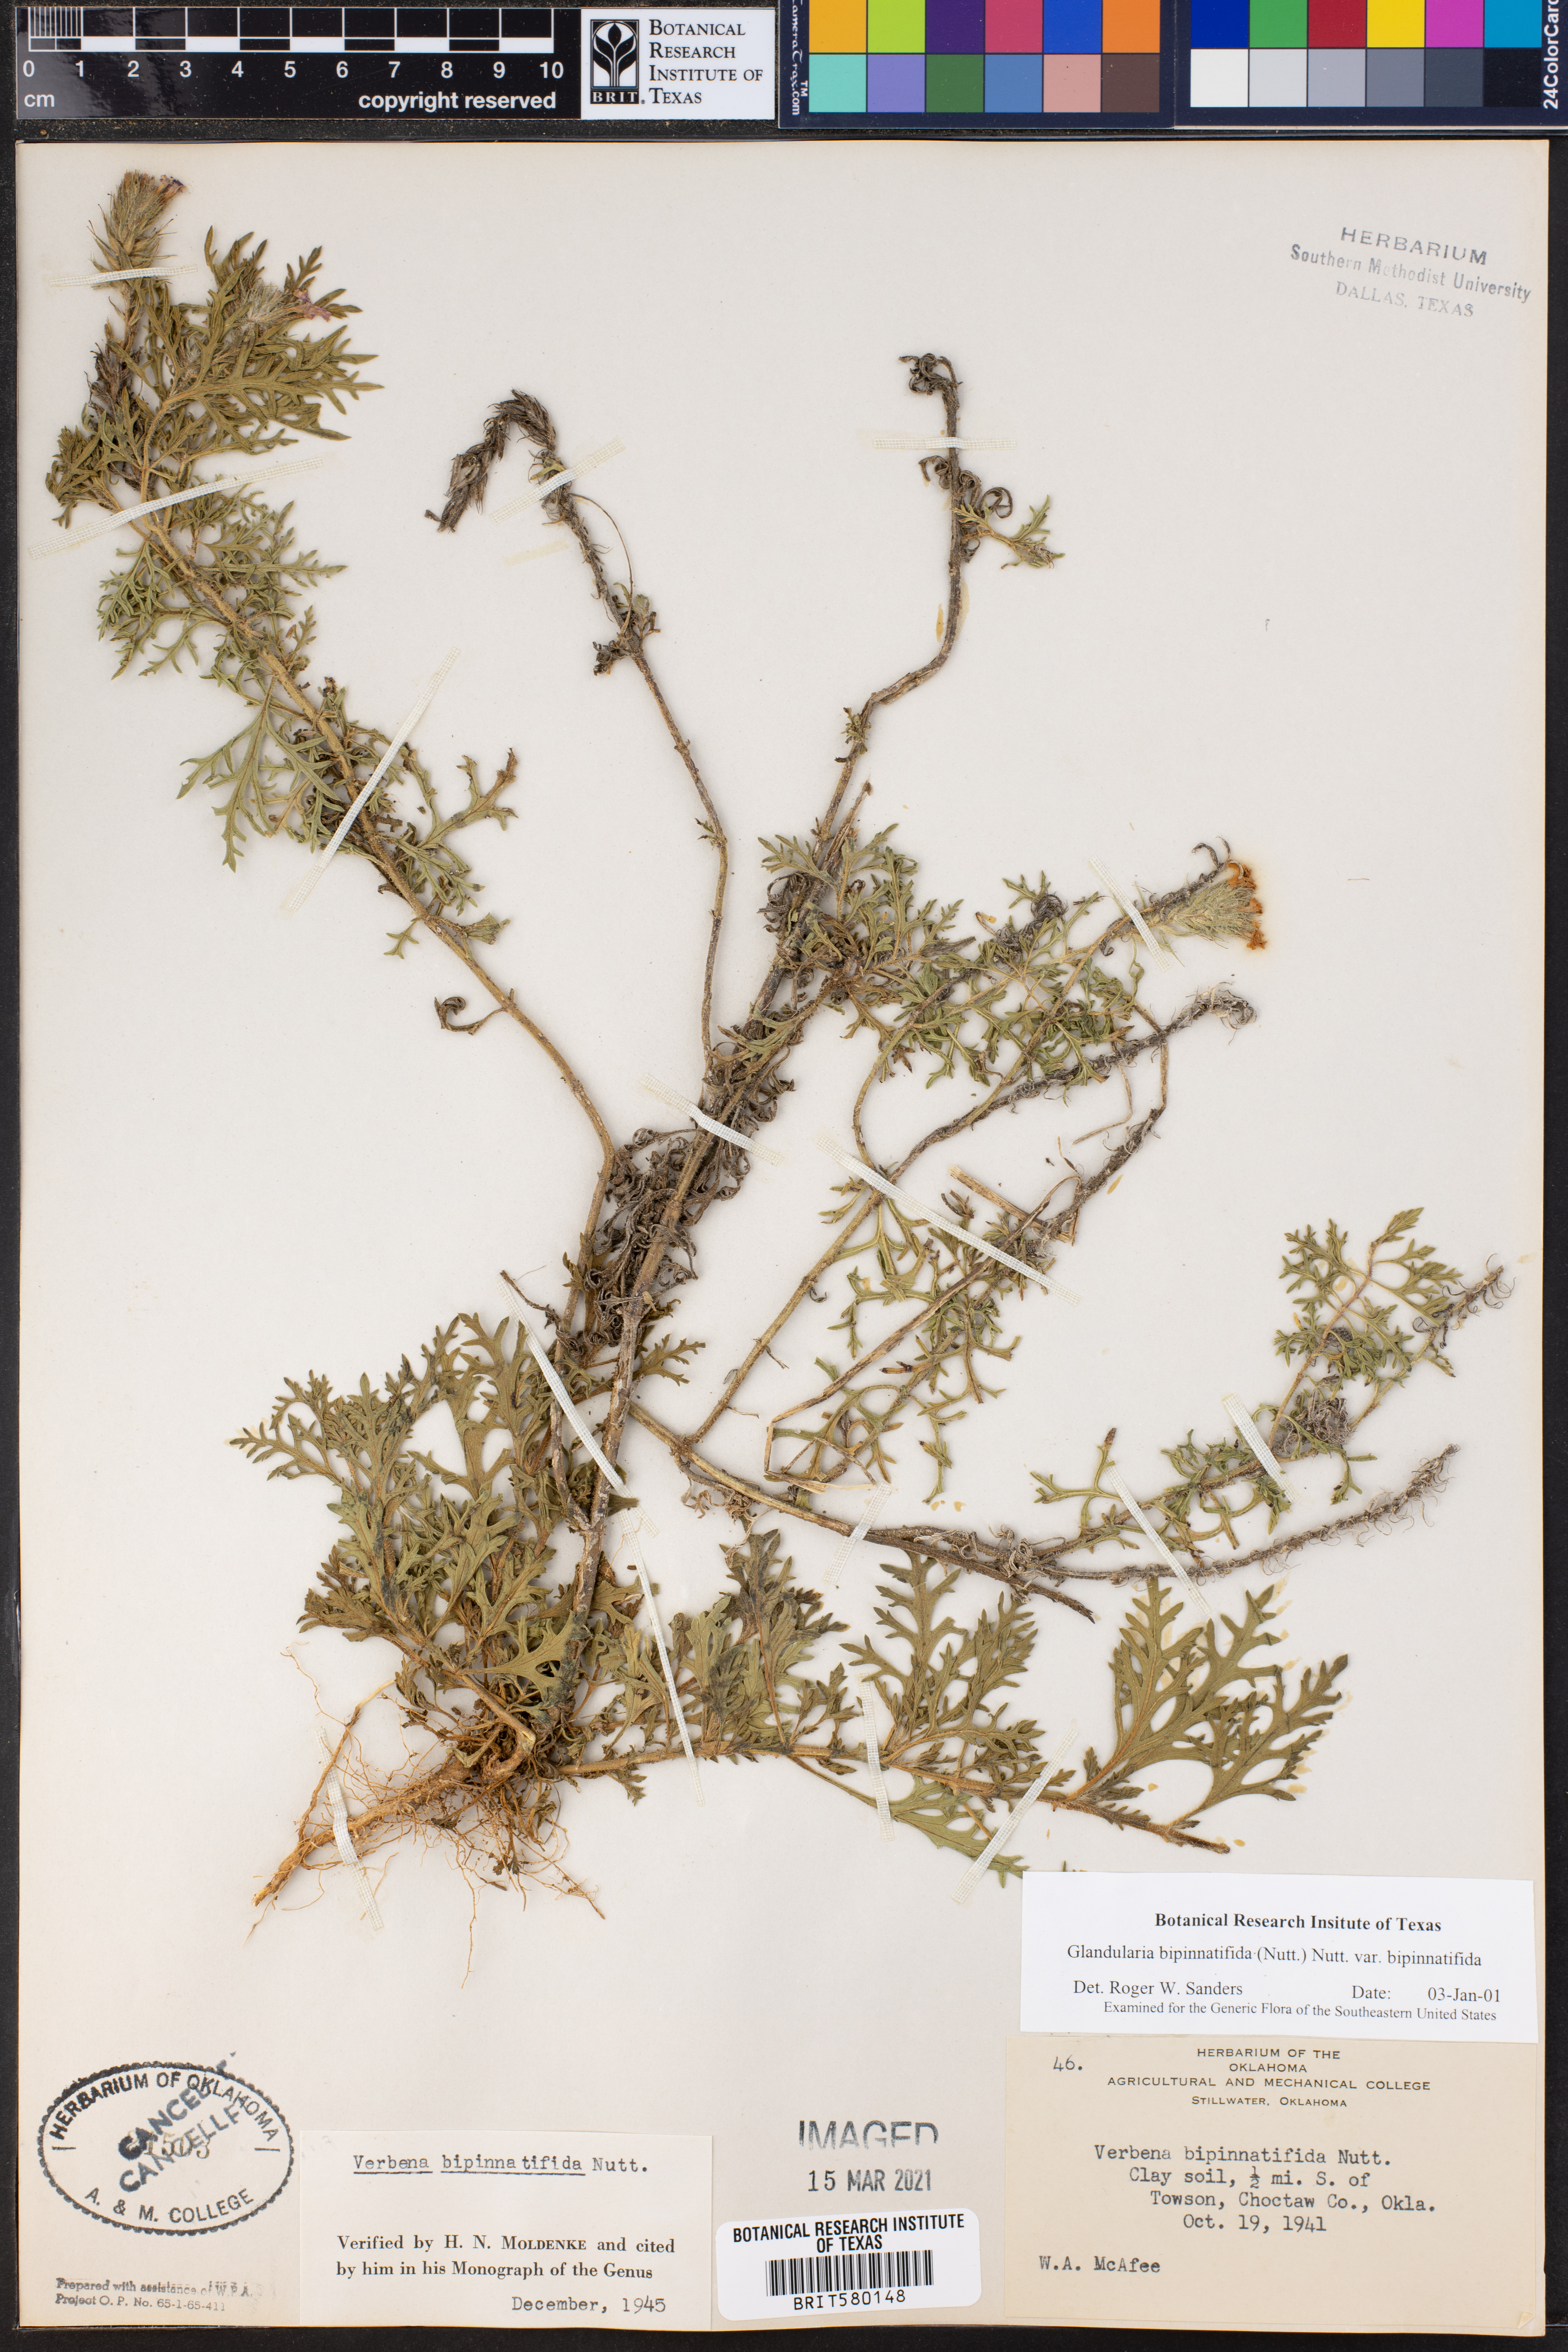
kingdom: Plantae
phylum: Tracheophyta
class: Magnoliopsida
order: Lamiales
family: Verbenaceae
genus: Verbena
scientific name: Verbena bipinnatifida
